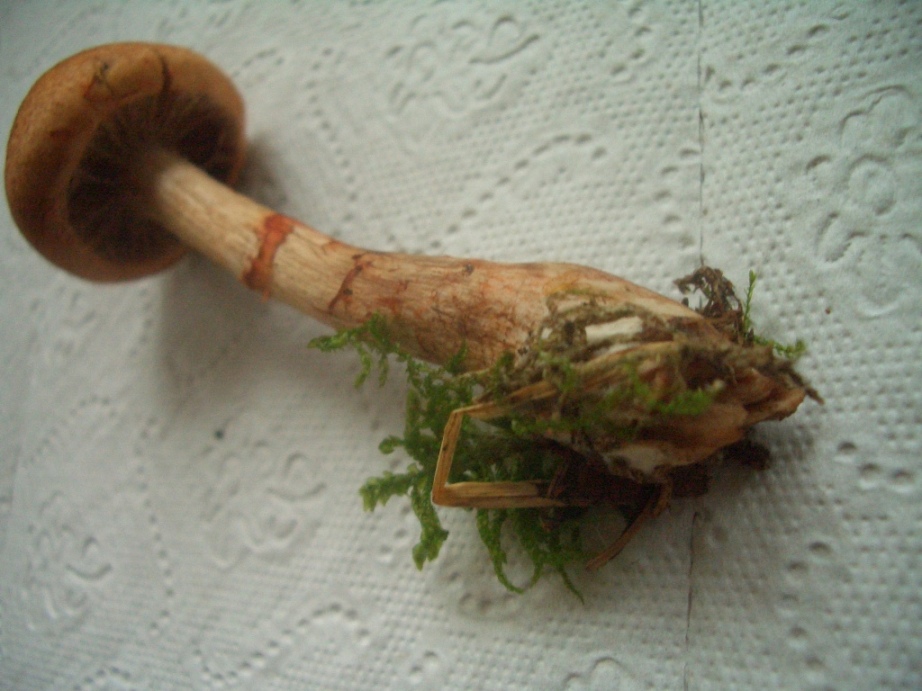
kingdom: Fungi
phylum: Basidiomycota
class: Agaricomycetes
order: Agaricales
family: Cortinariaceae
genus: Cortinarius
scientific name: Cortinarius armillatus
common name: cinnoberbæltet slørhat
